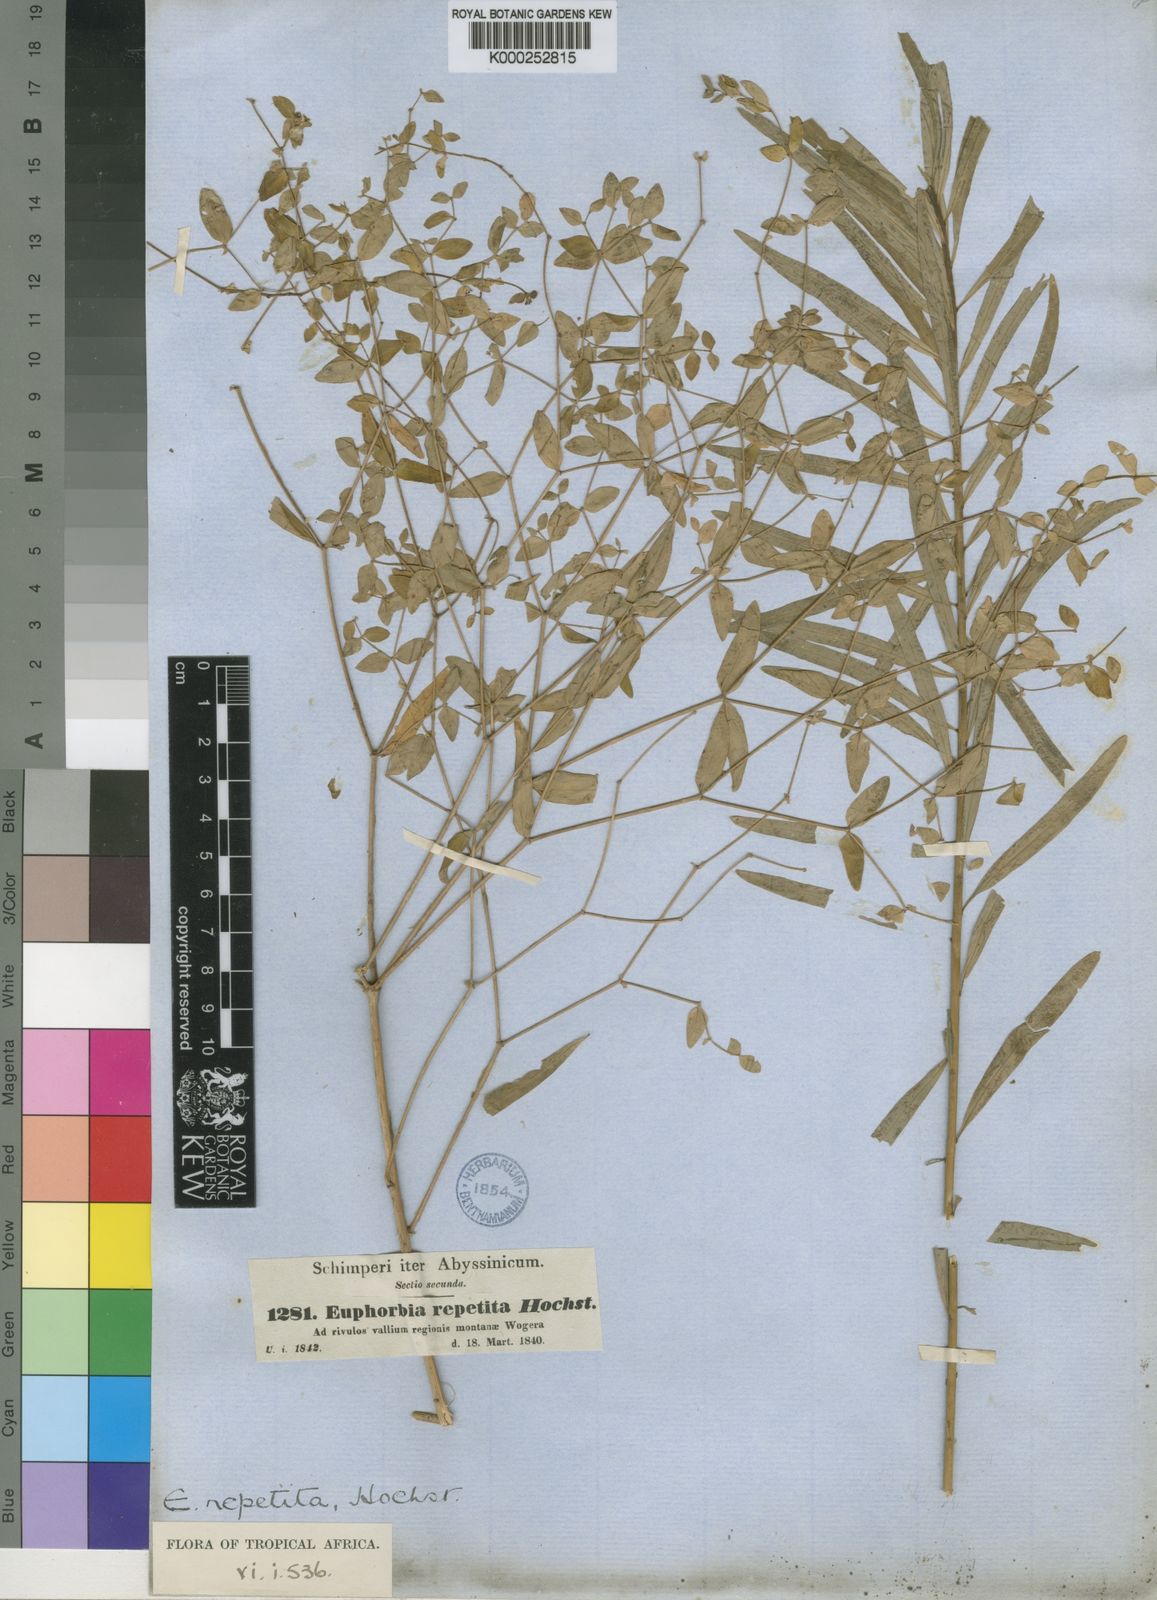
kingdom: Plantae
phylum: Tracheophyta
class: Magnoliopsida
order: Malpighiales
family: Euphorbiaceae
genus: Euphorbia
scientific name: Euphorbia repetita
